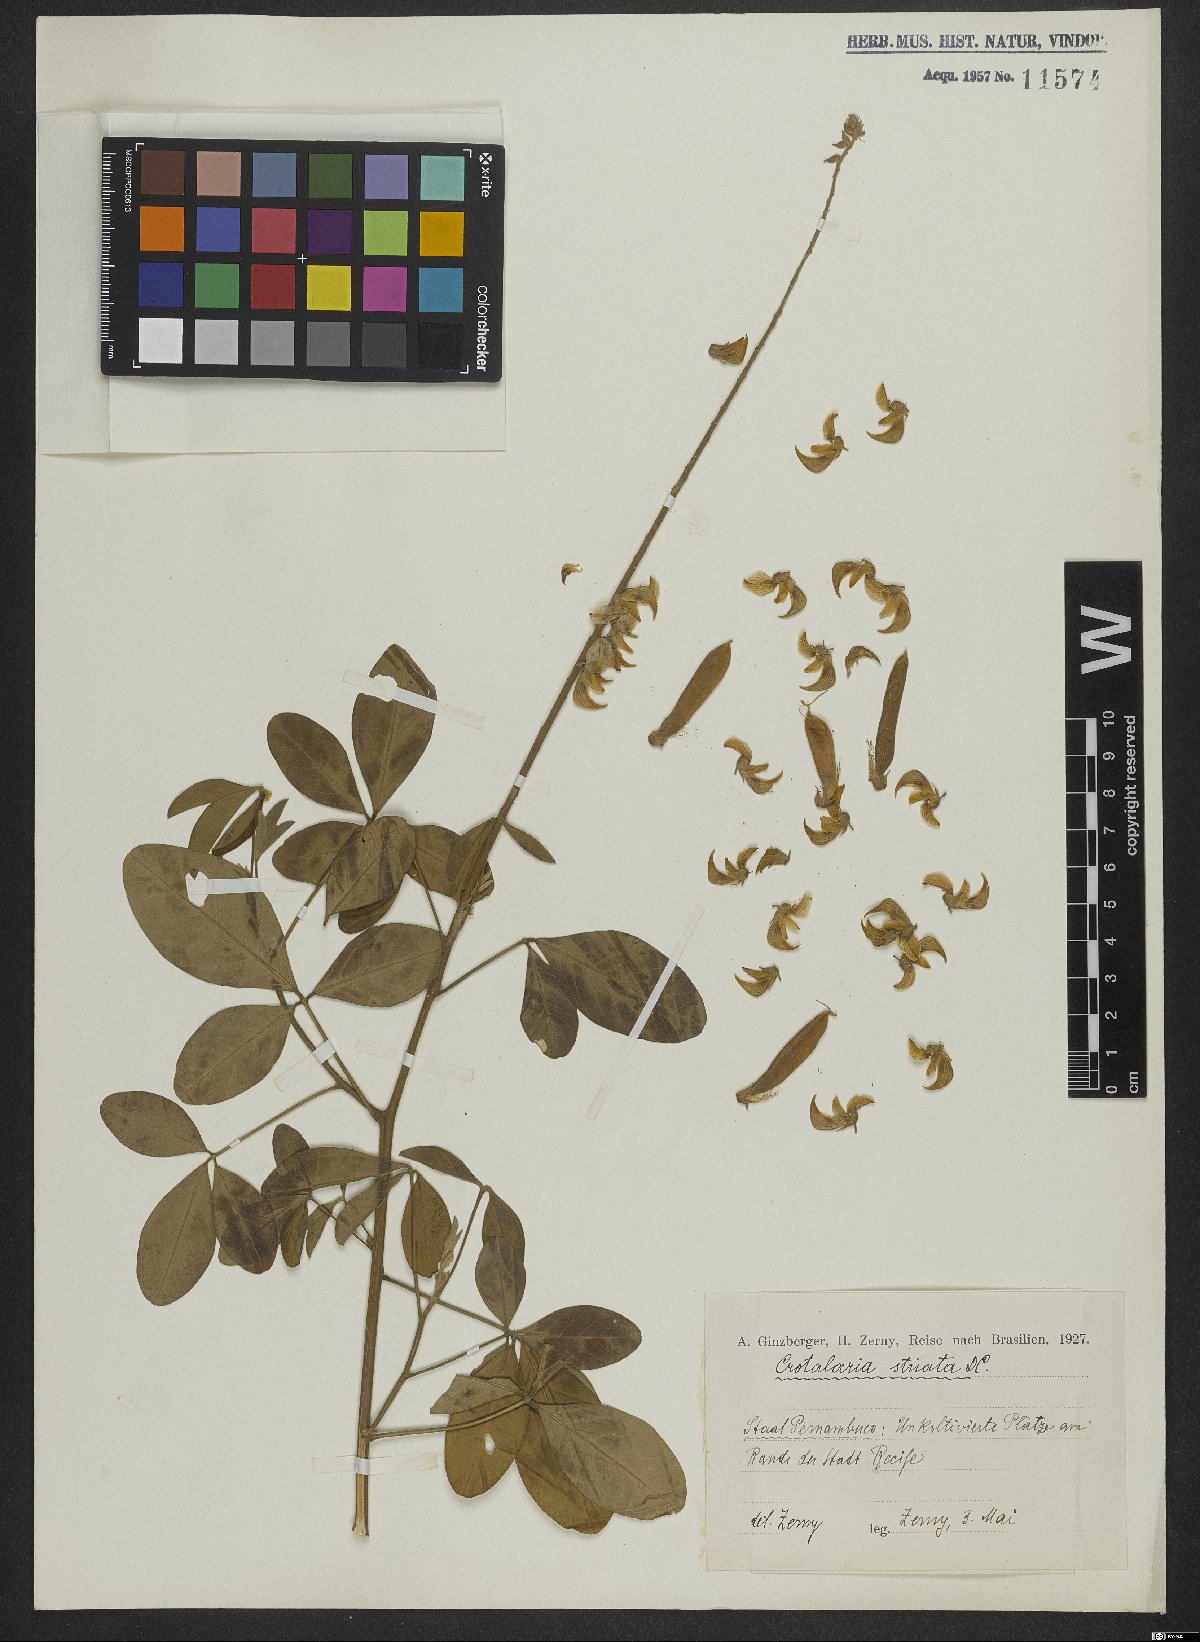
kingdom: Plantae
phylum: Tracheophyta
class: Magnoliopsida
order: Fabales
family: Fabaceae
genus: Crotalaria
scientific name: Crotalaria pallida
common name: Smooth rattlebox
